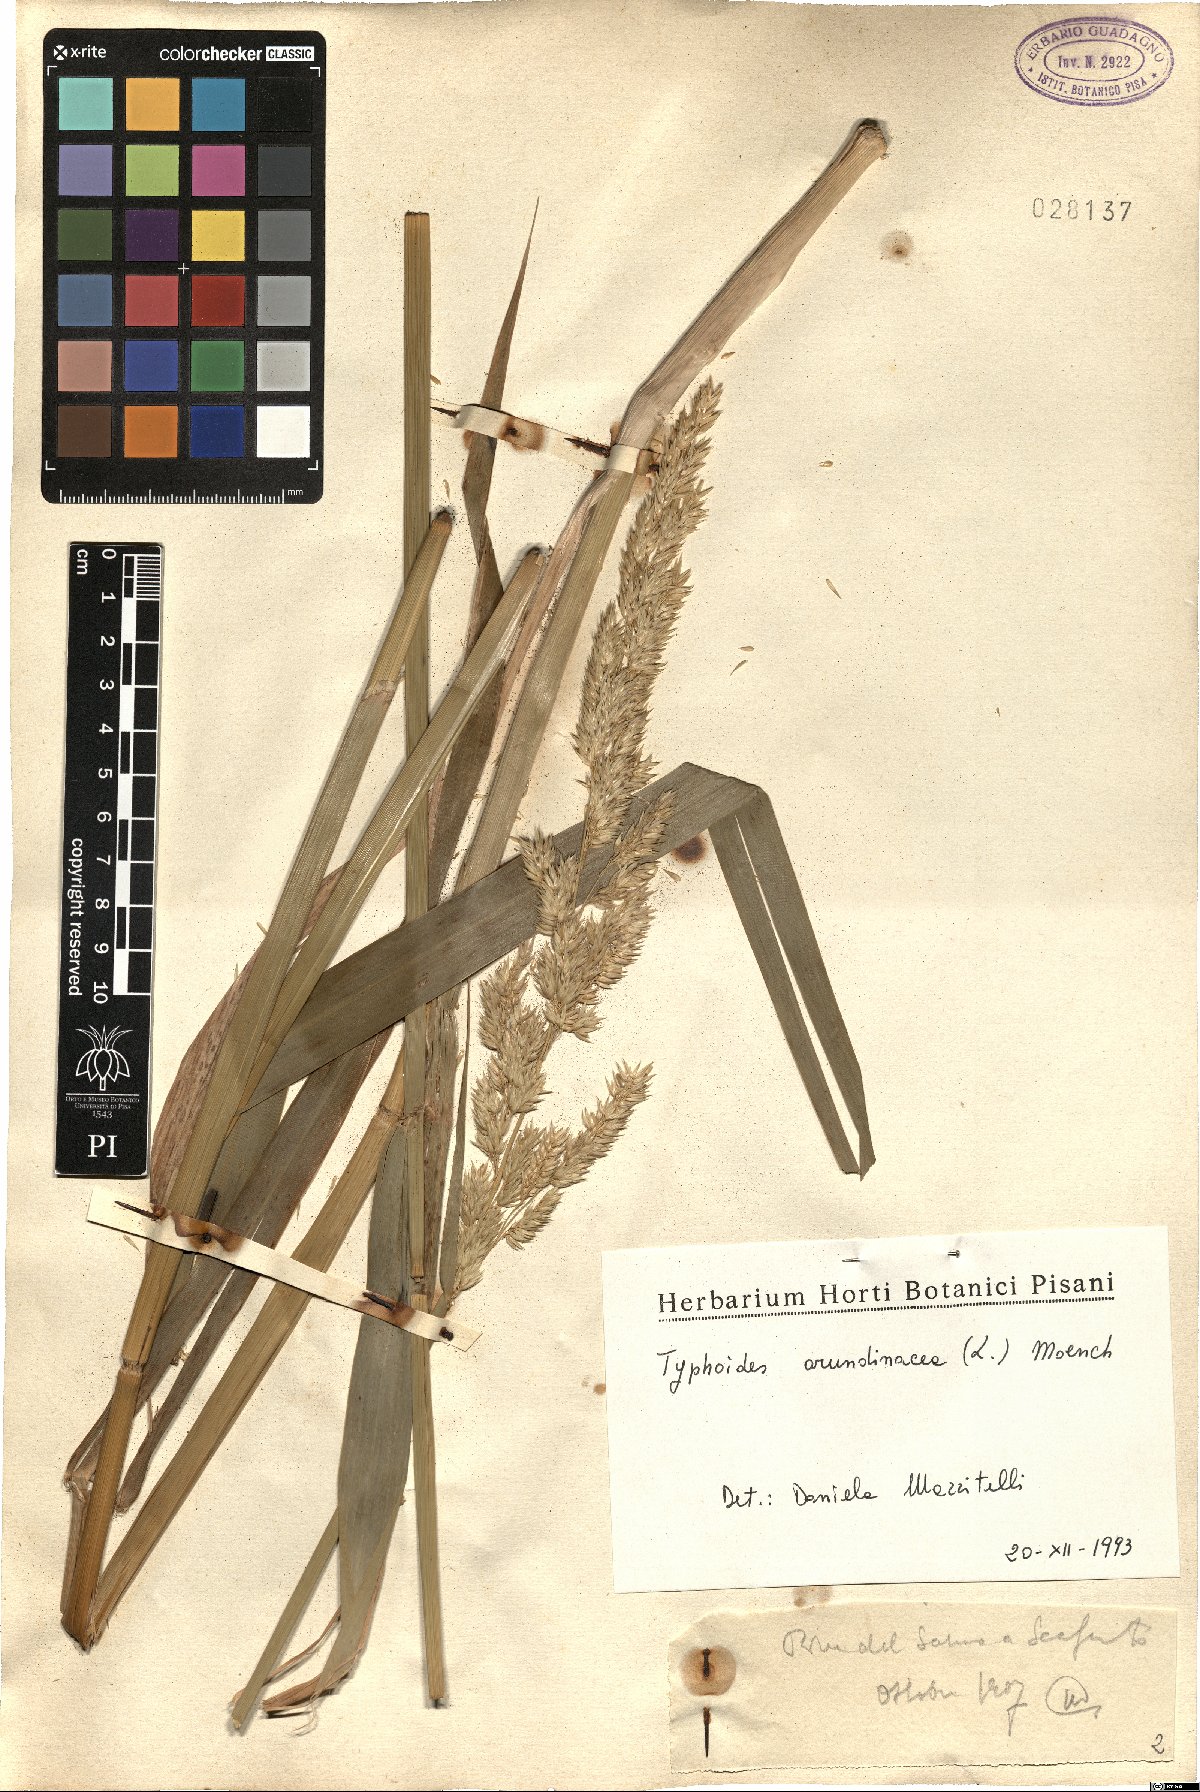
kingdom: Plantae
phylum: Tracheophyta
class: Liliopsida
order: Poales
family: Poaceae
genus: Phalaris
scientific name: Phalaris arundinacea
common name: Reed canary-grass
